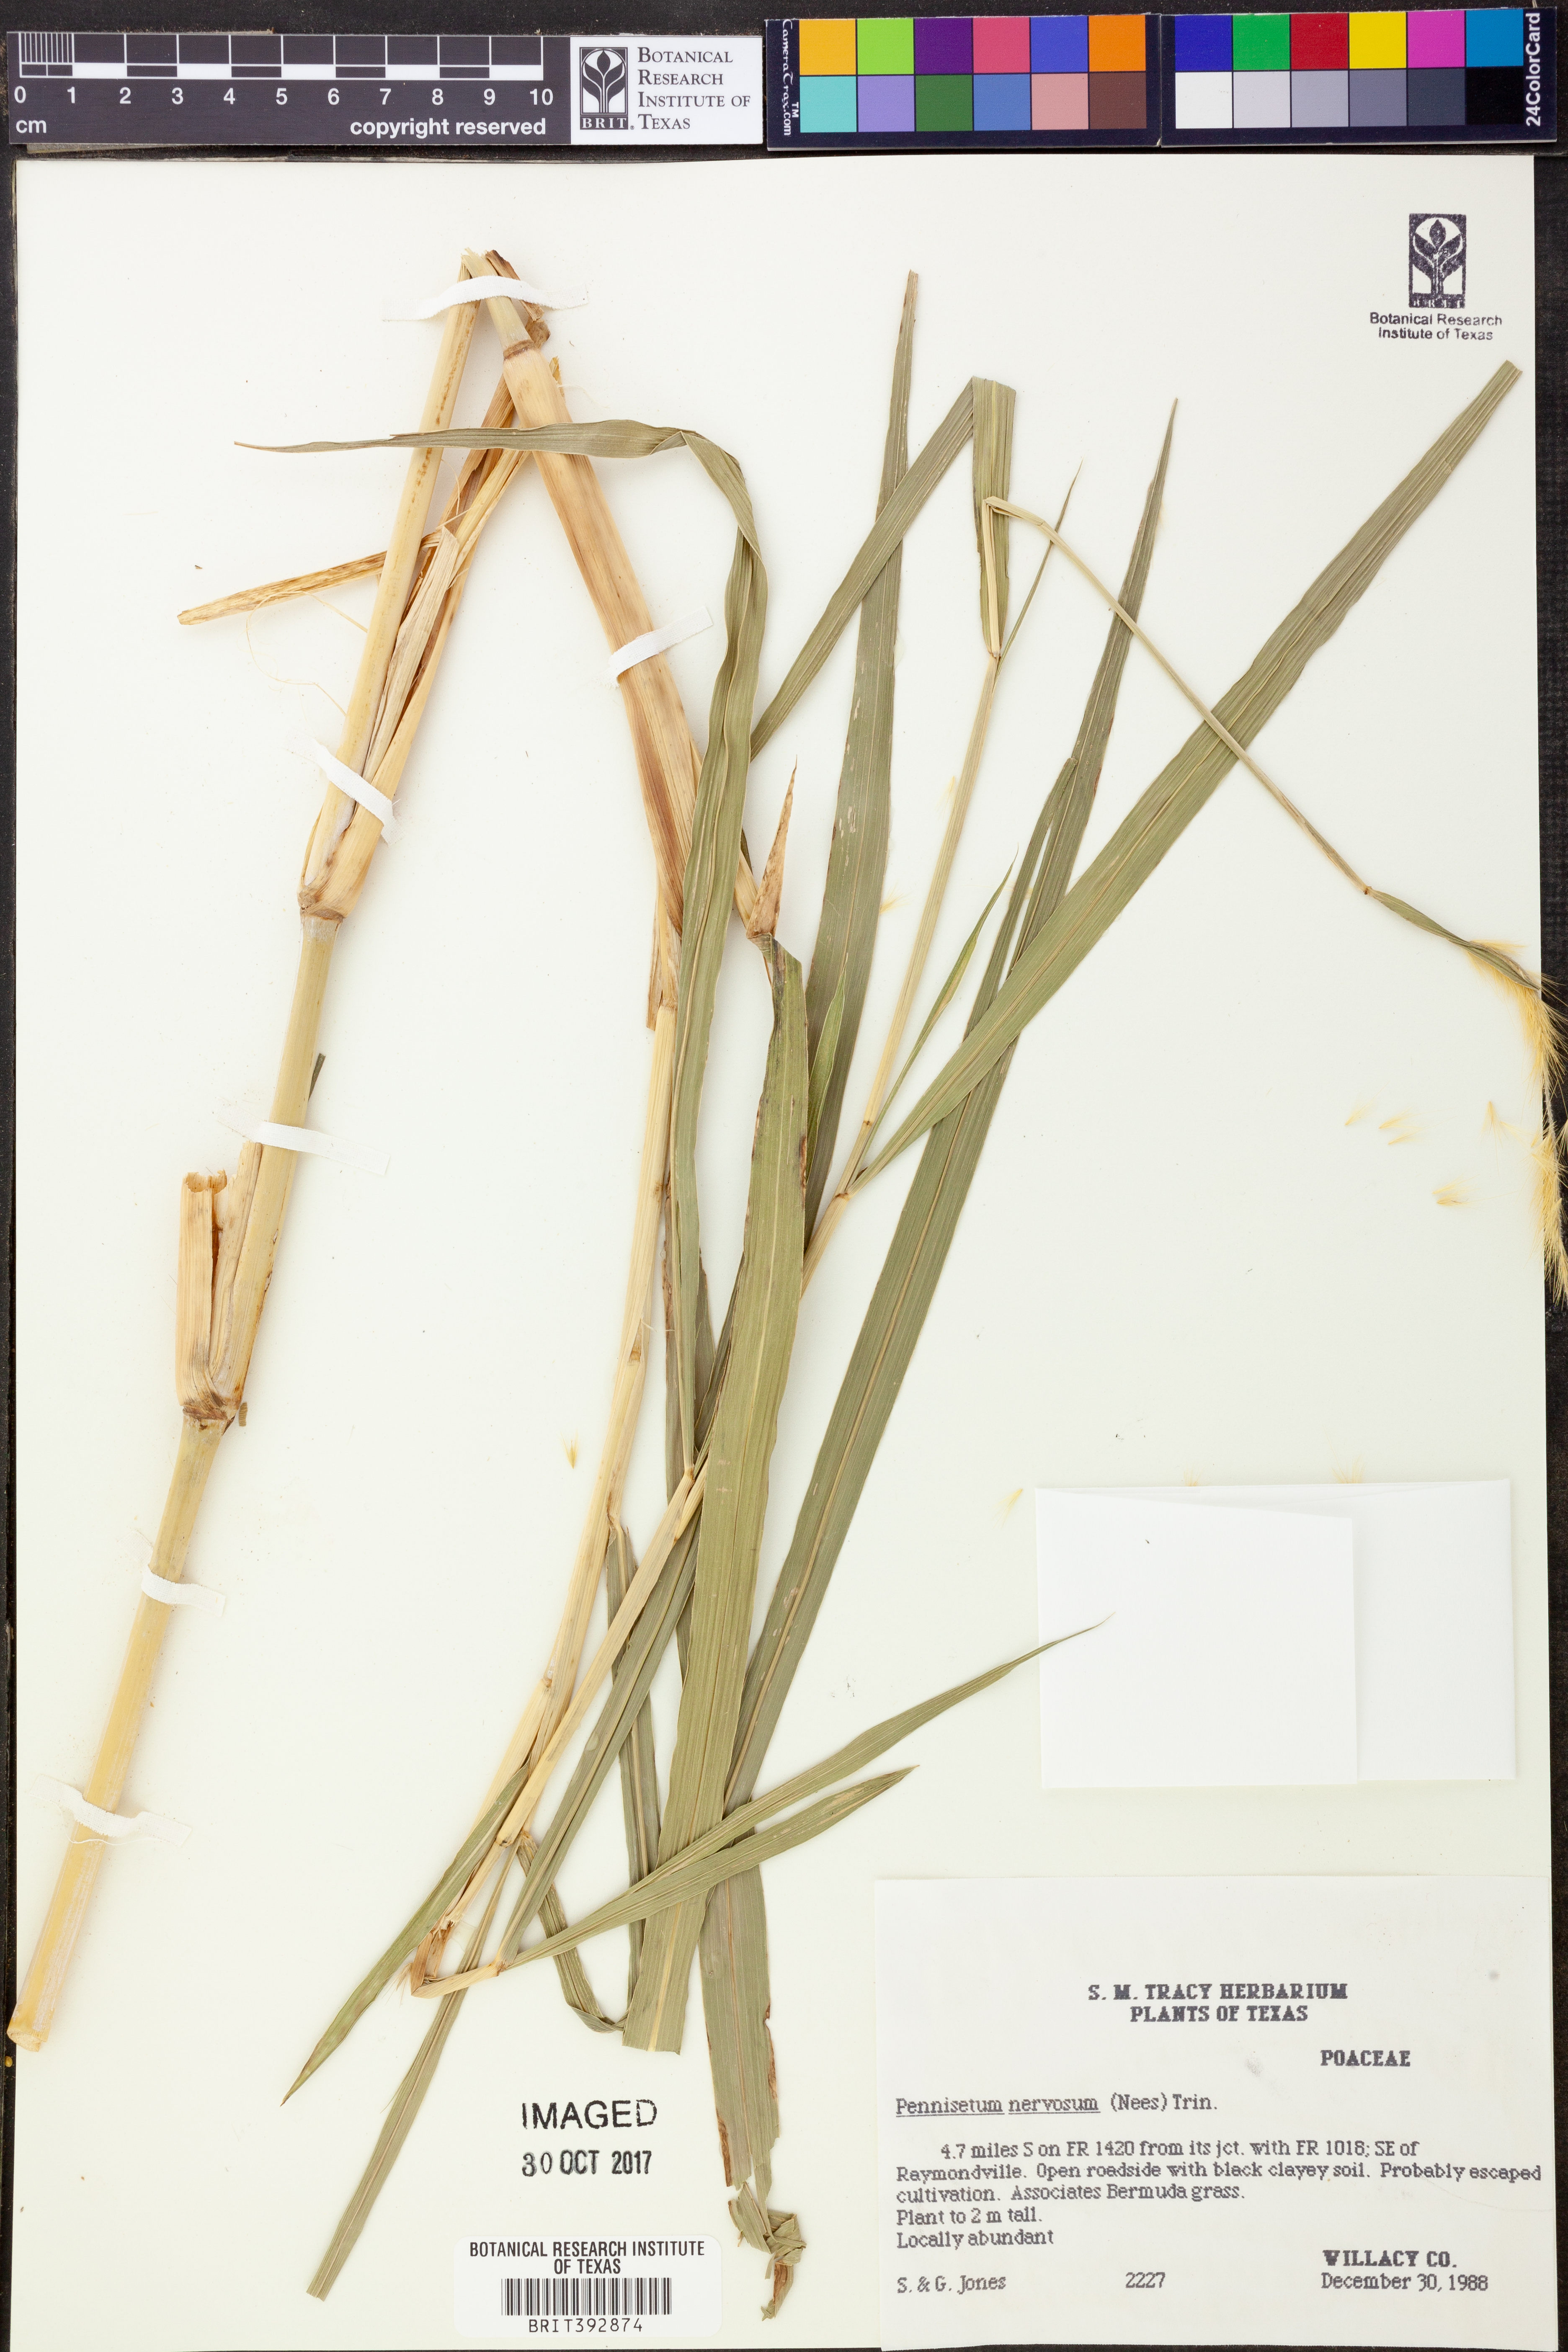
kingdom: Plantae
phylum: Tracheophyta
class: Liliopsida
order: Poales
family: Poaceae
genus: Cenchrus
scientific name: Cenchrus nervosus
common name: Bentspike fountaingrass
